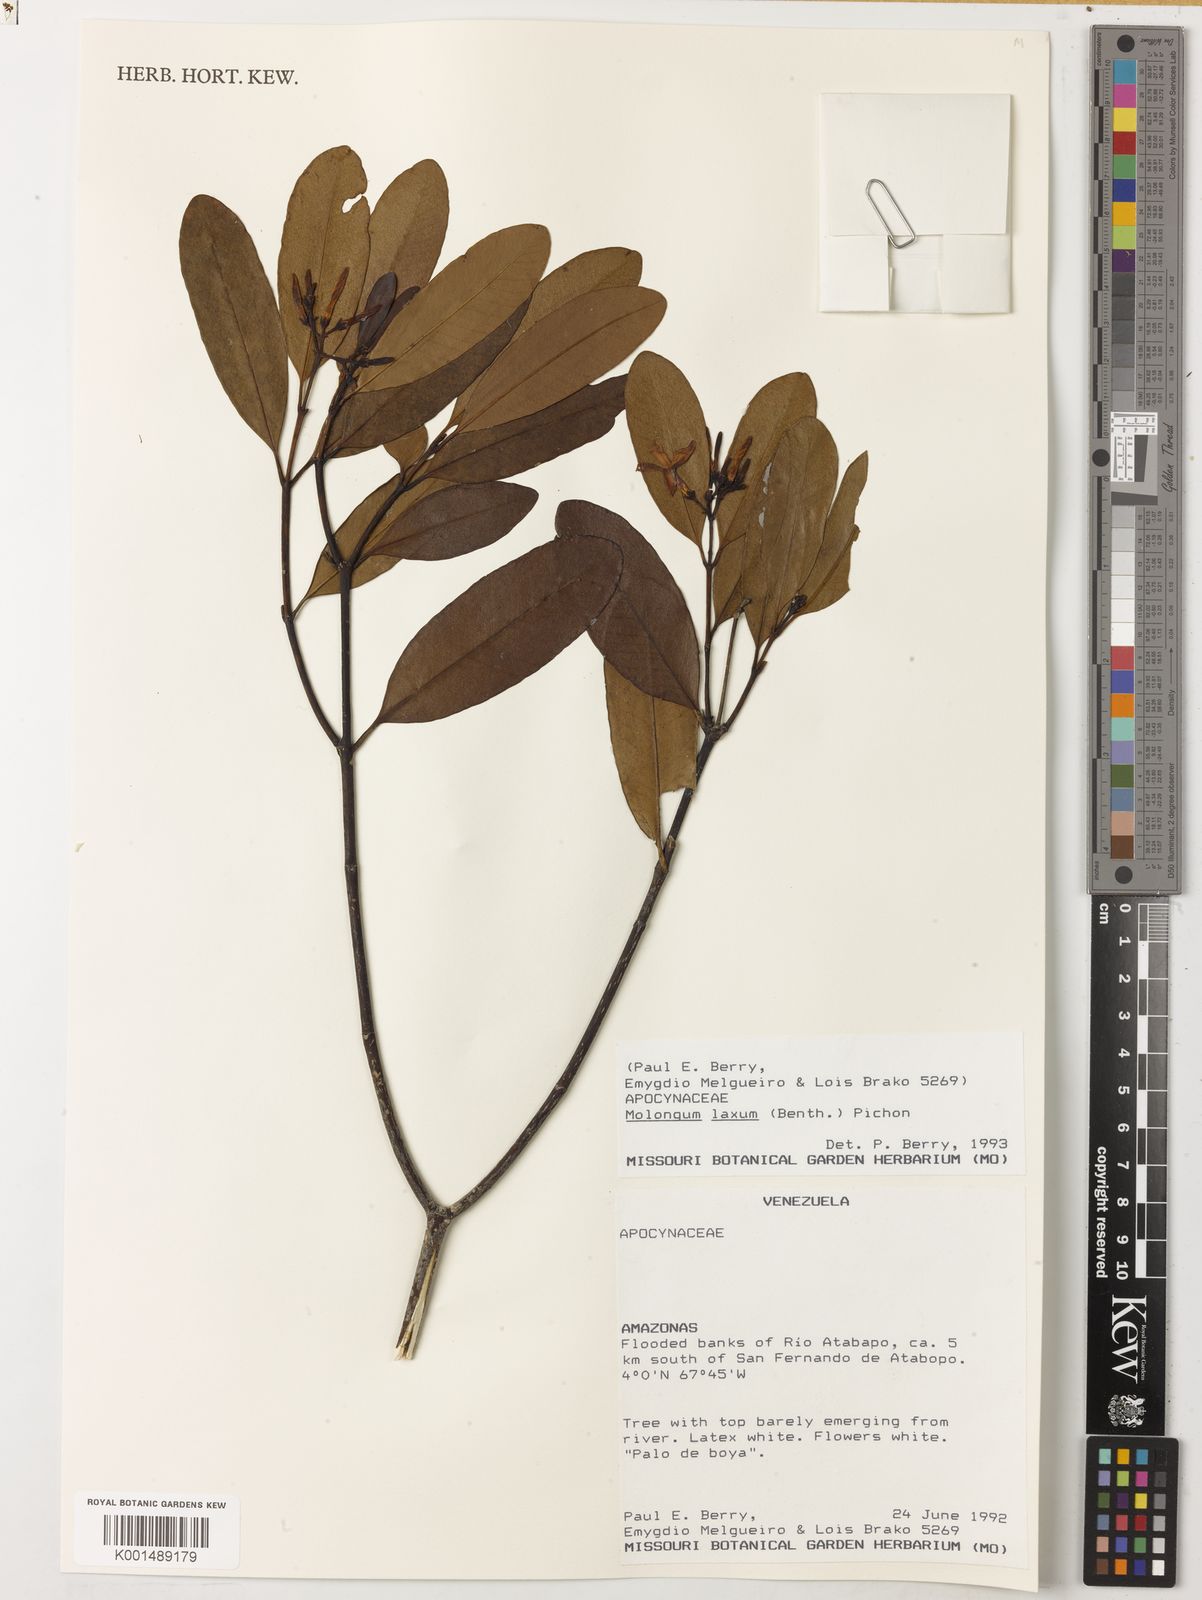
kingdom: Plantae
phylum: Tracheophyta
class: Magnoliopsida
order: Gentianales
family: Apocynaceae
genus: Molongum
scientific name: Molongum laxum
